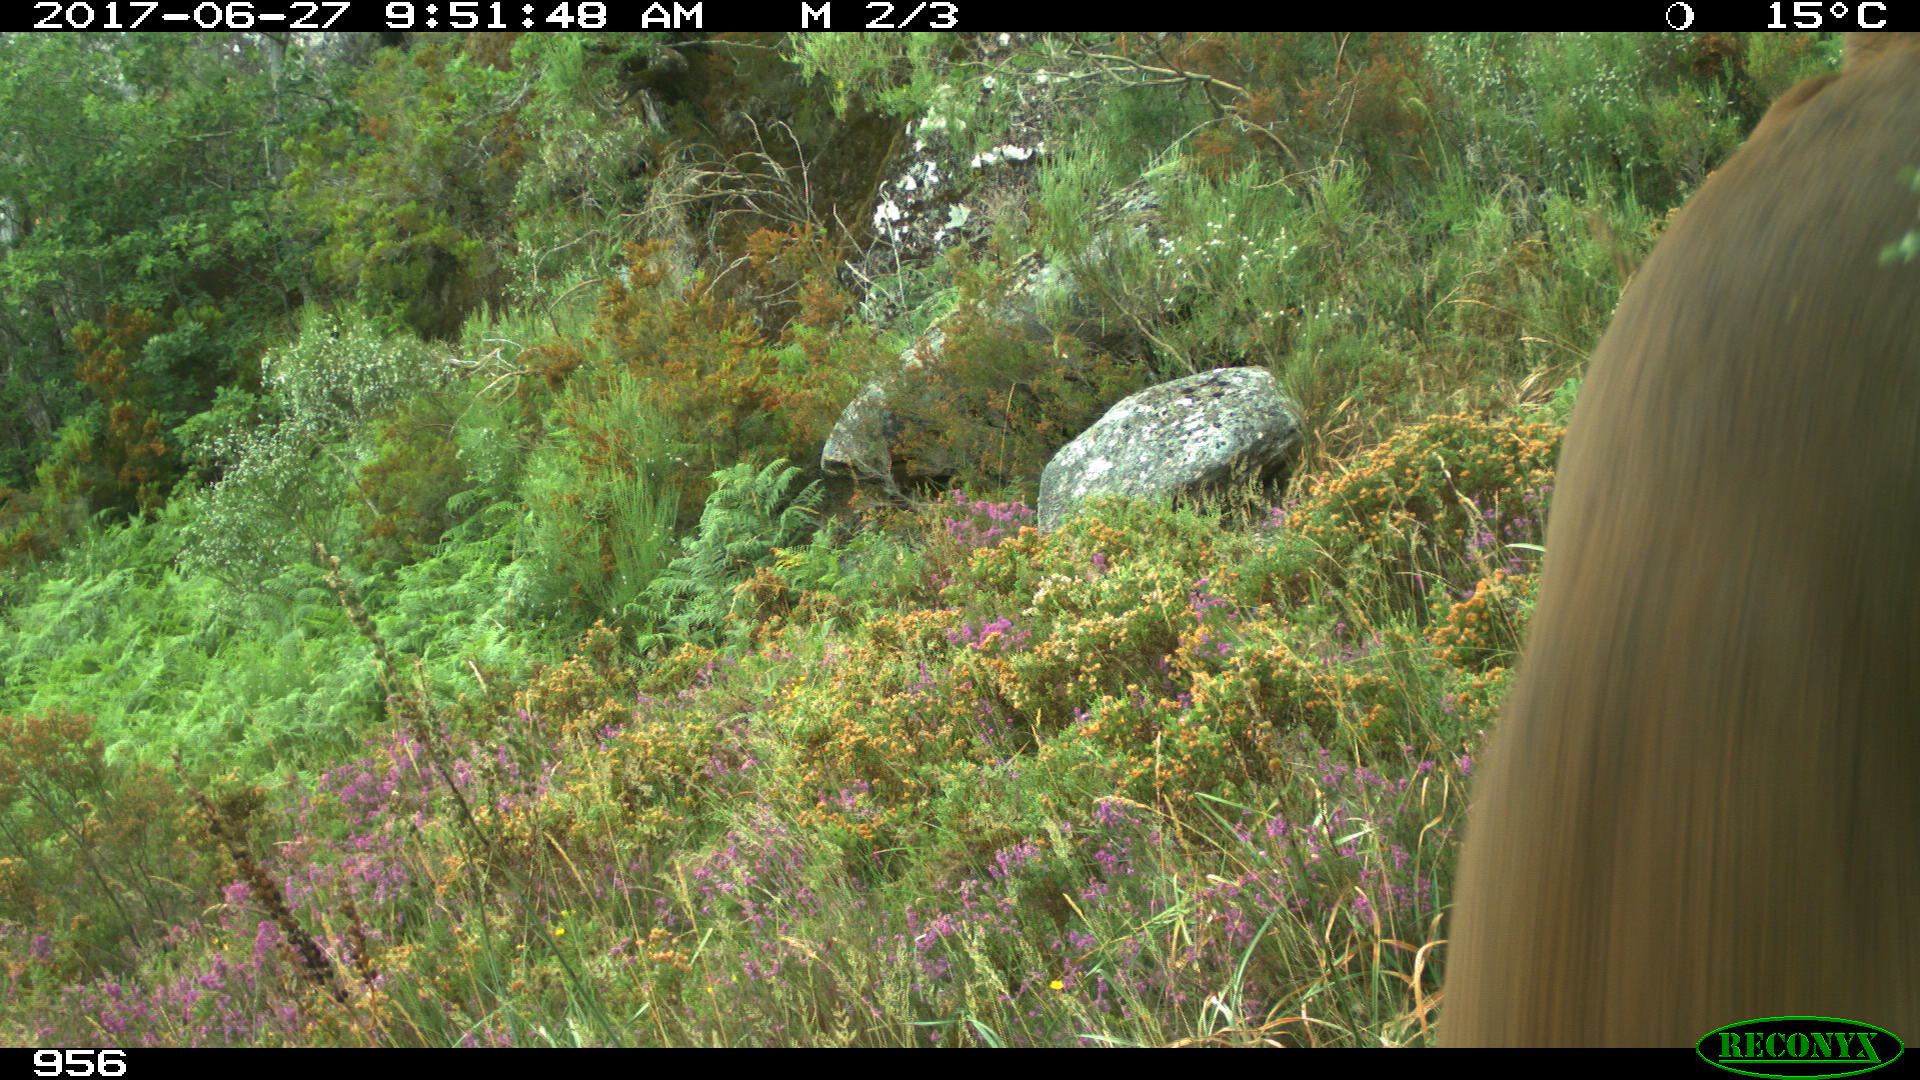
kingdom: Animalia
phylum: Chordata
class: Mammalia
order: Artiodactyla
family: Cervidae
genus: Capreolus
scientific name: Capreolus capreolus
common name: Western roe deer
